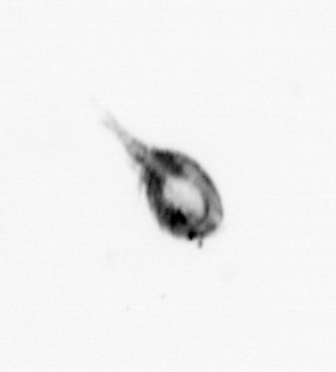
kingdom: Animalia
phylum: Arthropoda
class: Copepoda
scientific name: Copepoda
